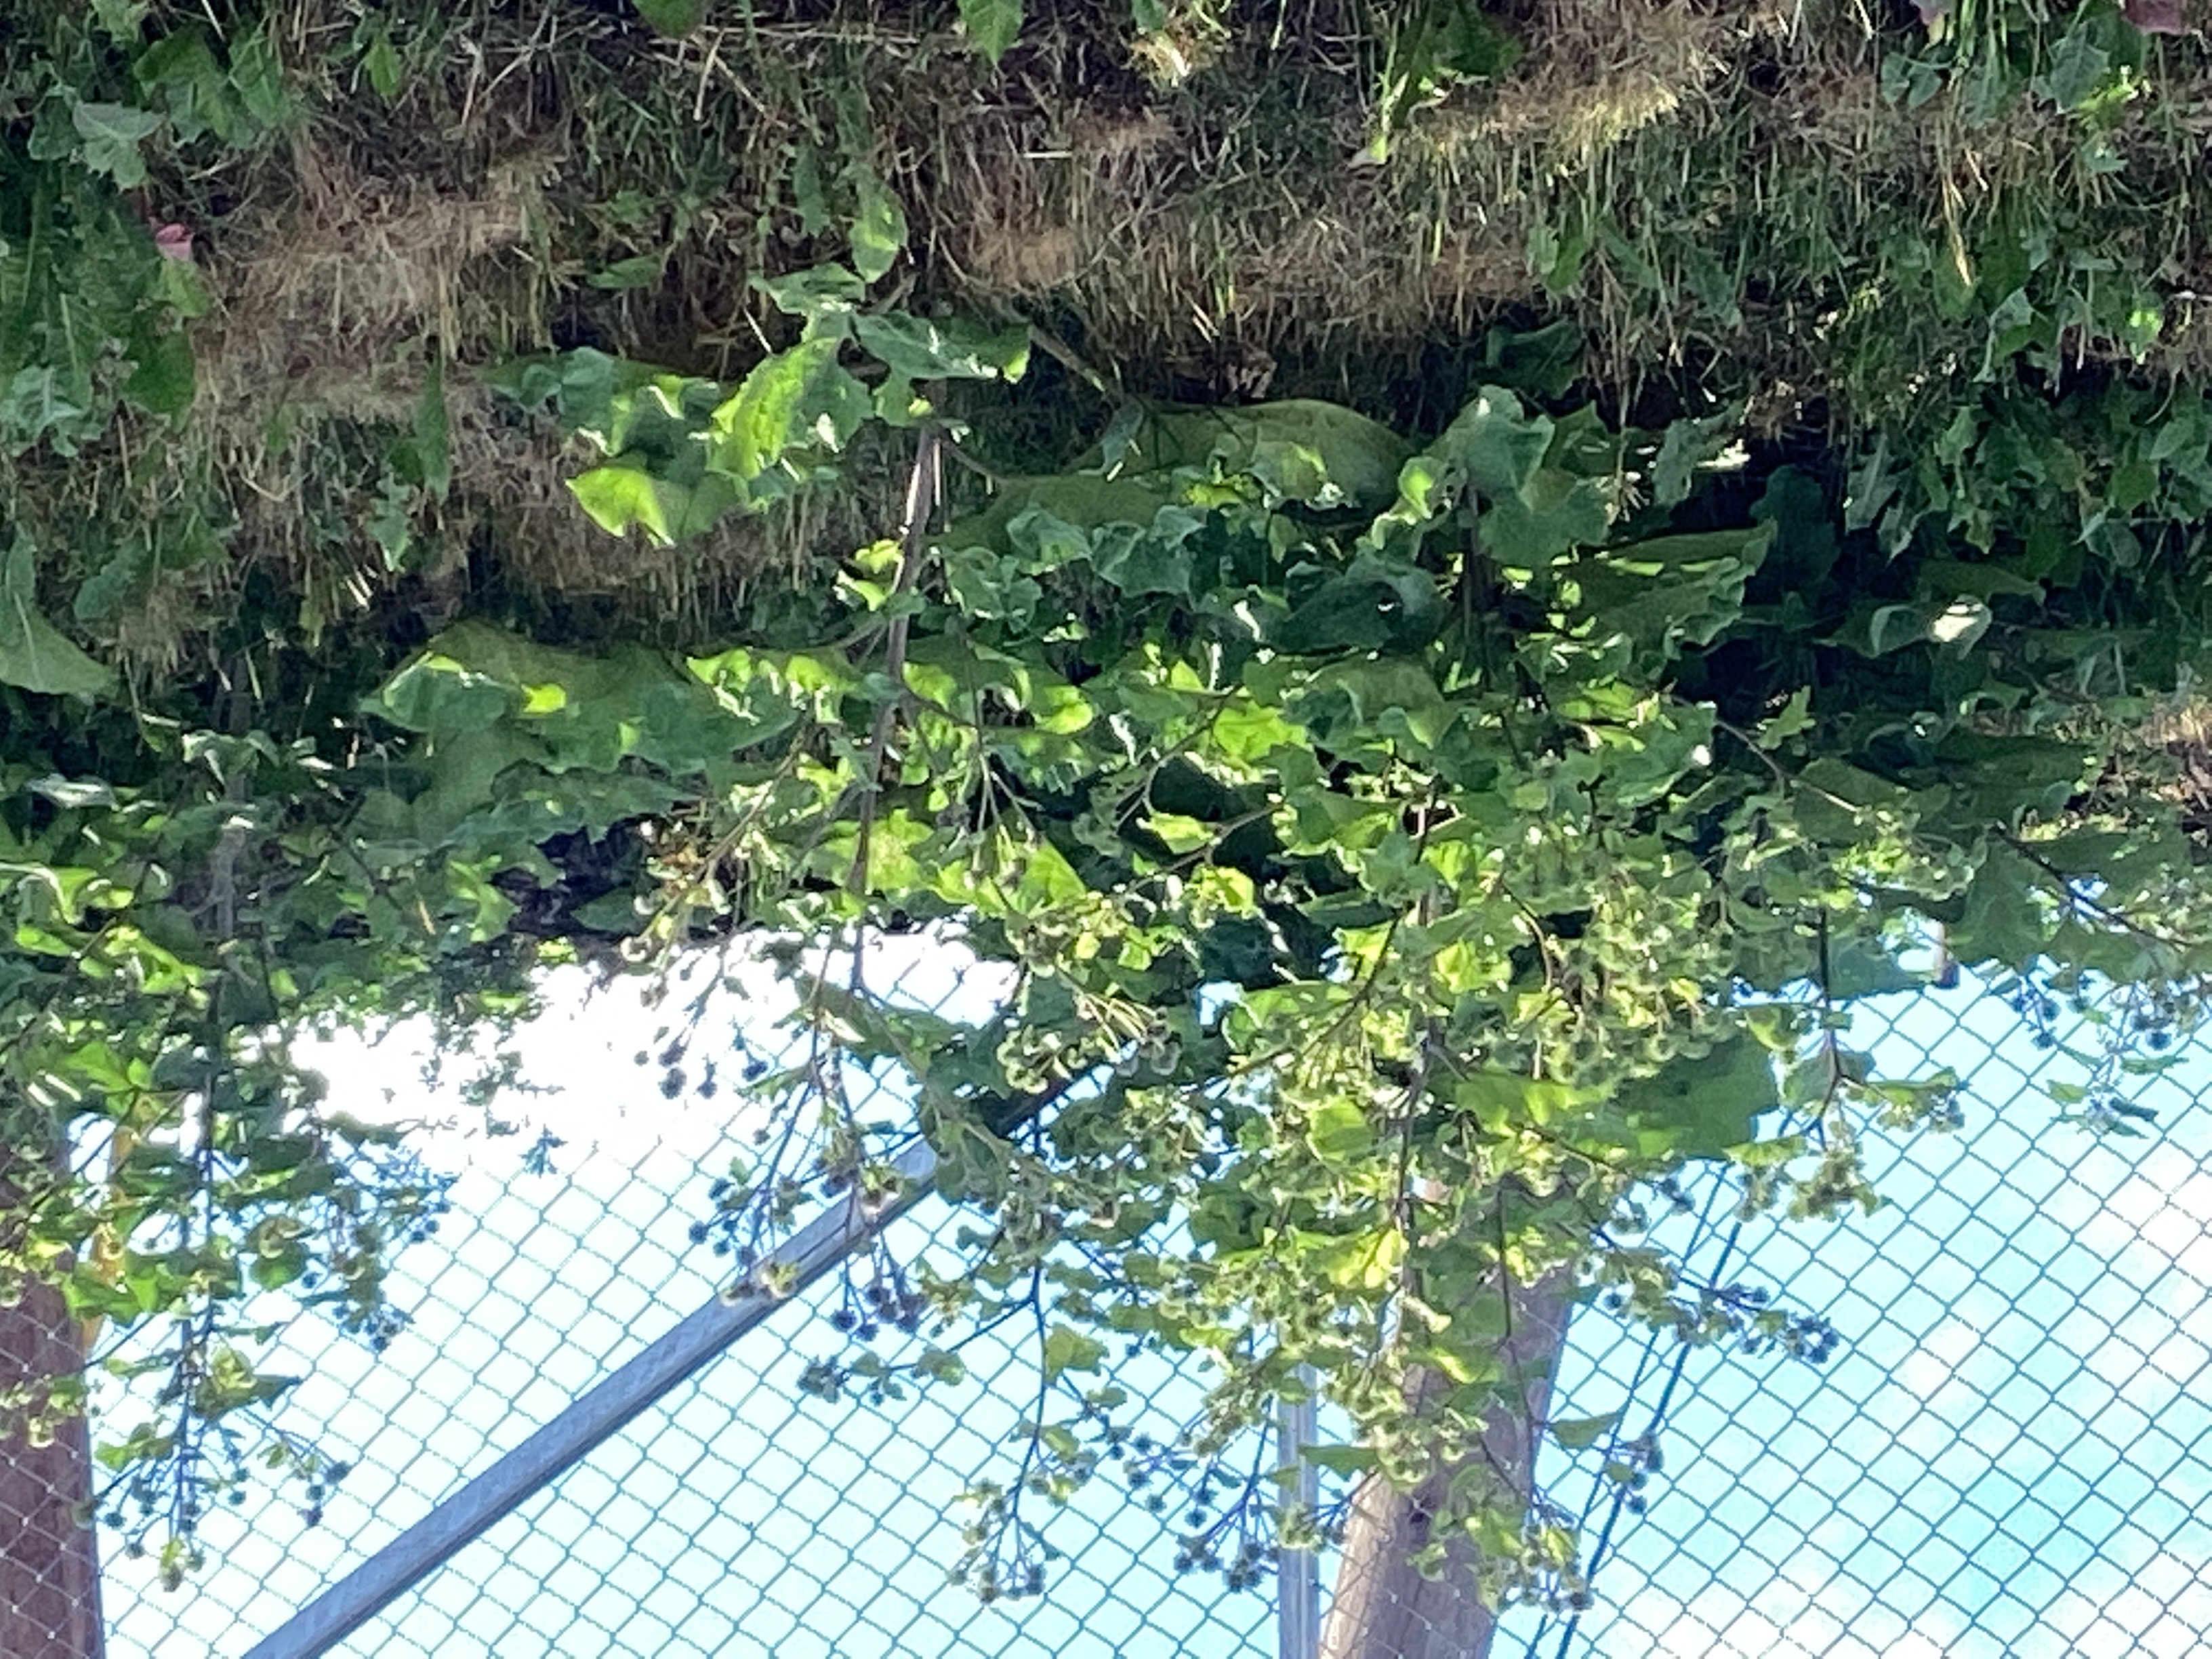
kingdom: Plantae
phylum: Tracheophyta
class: Magnoliopsida
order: Asterales
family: Asteraceae
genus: Arctium
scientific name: Arctium tomentosum
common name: ullborre
